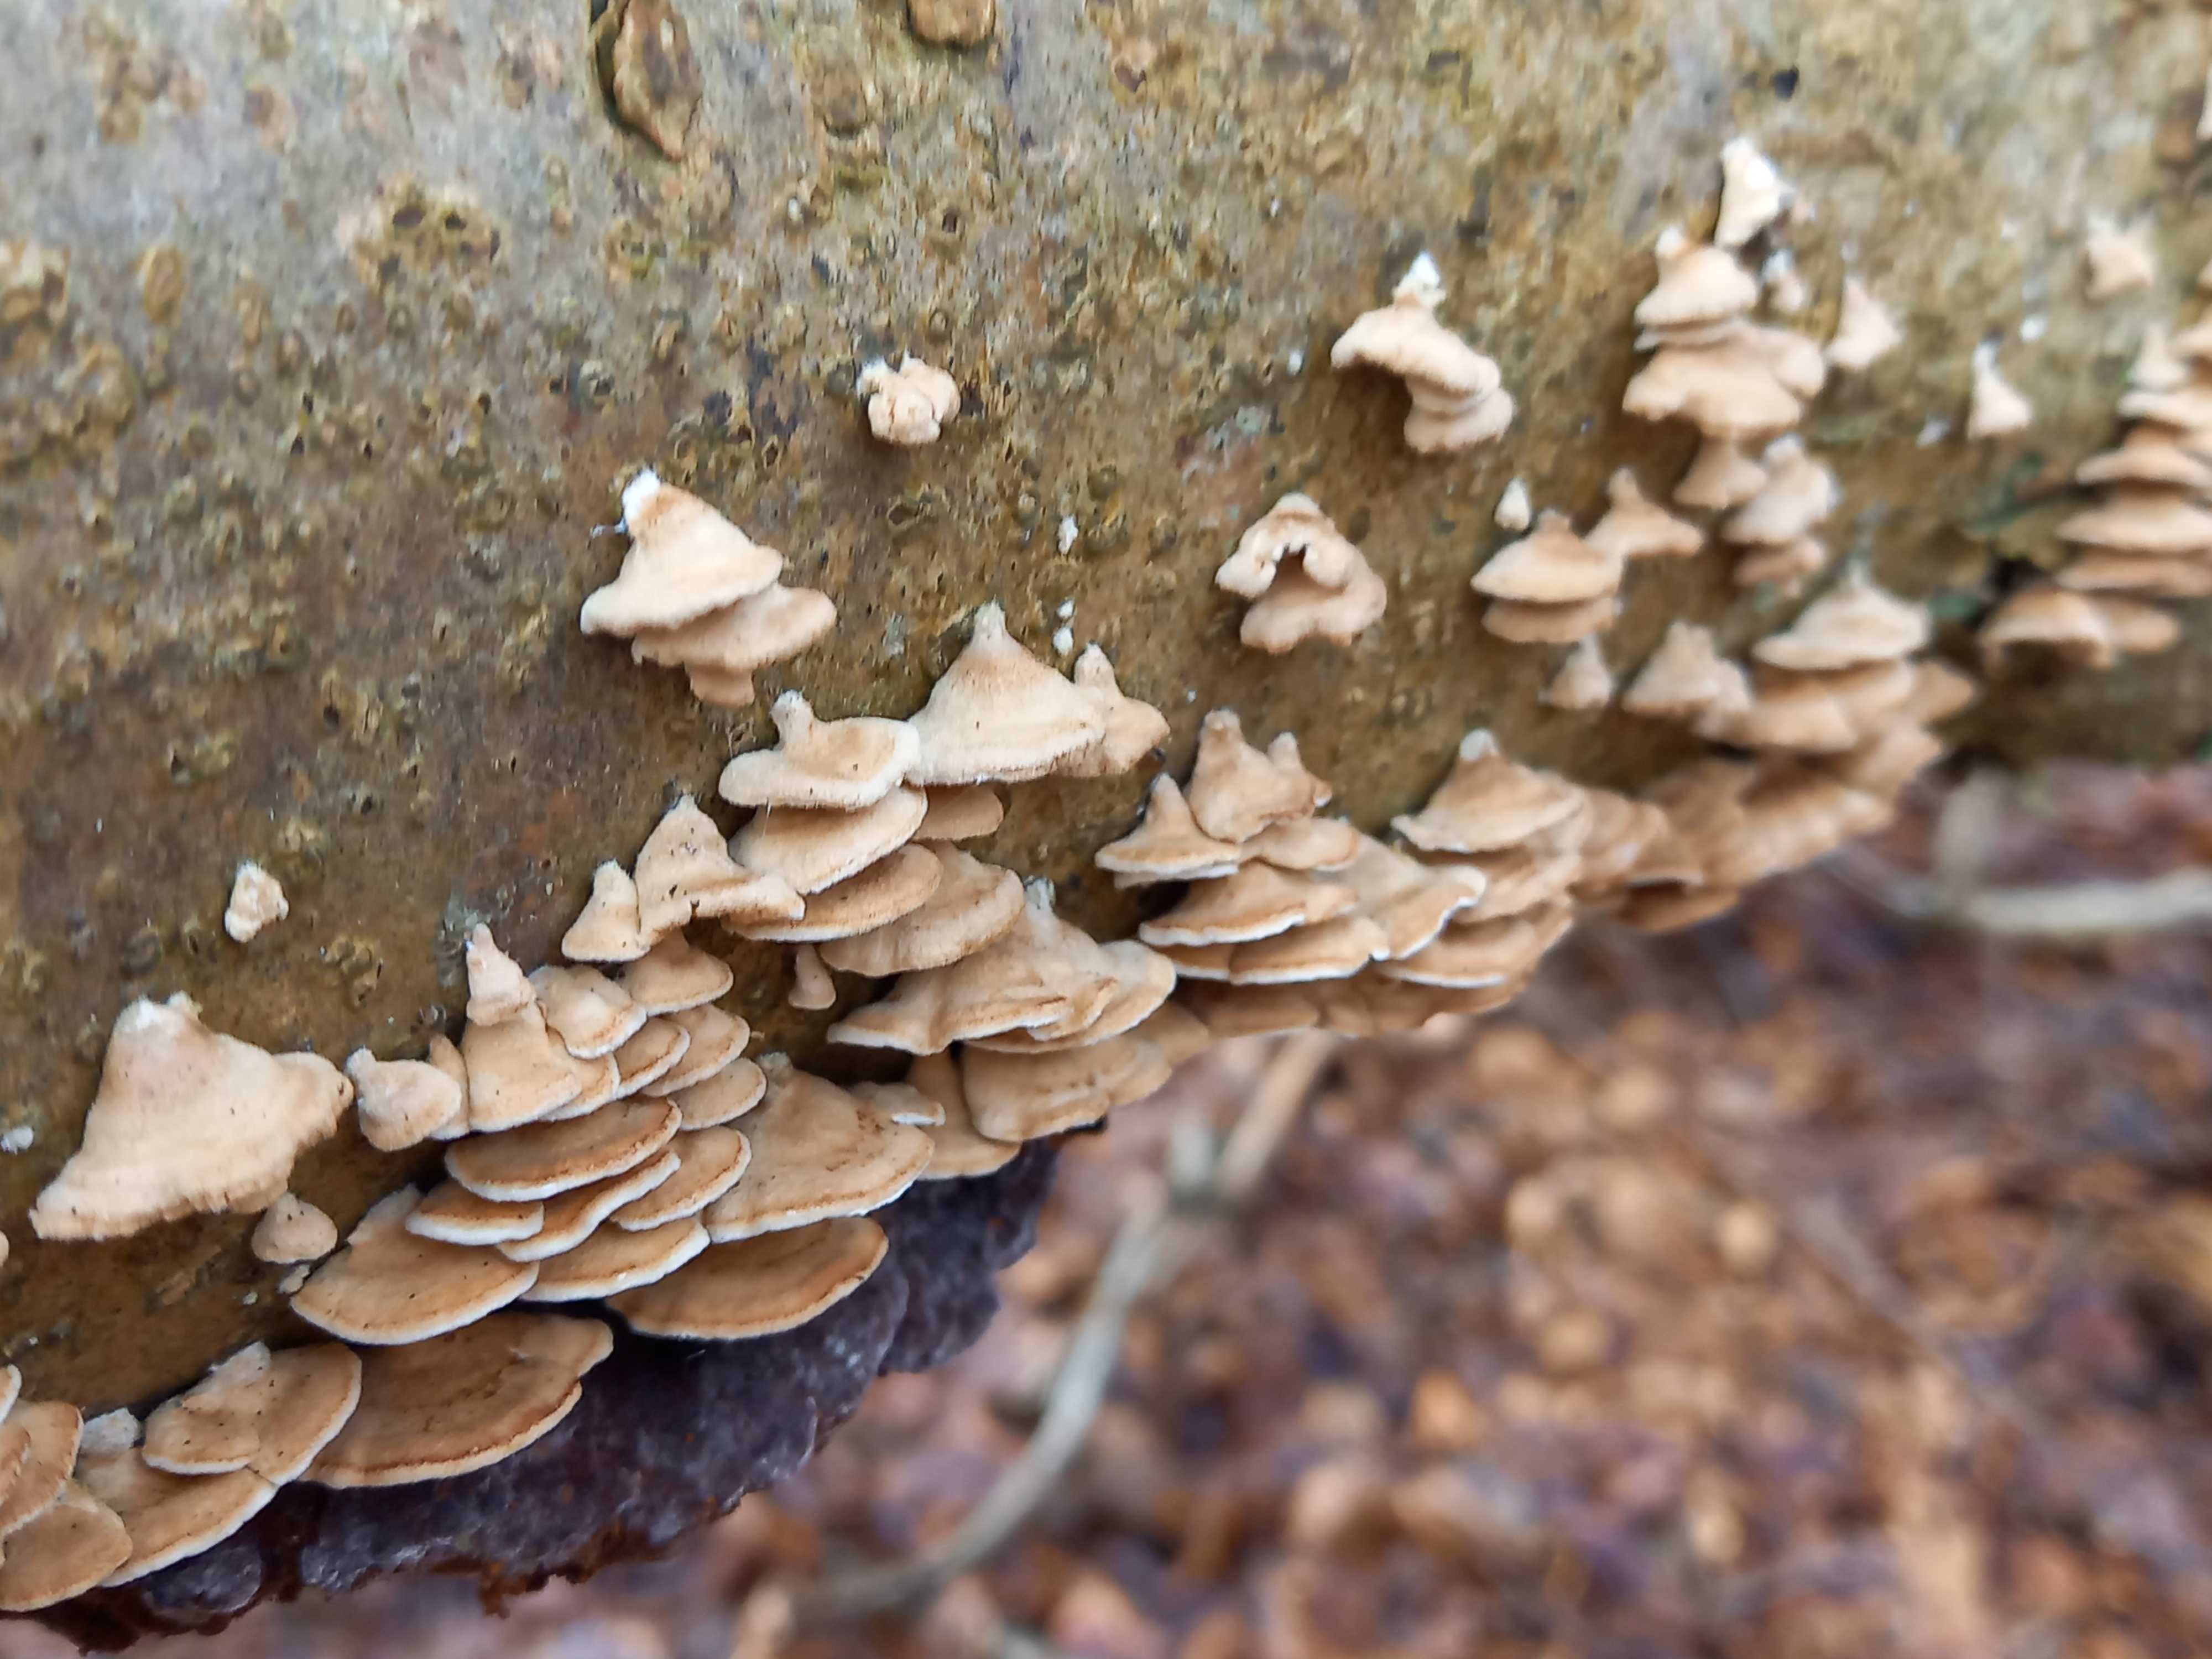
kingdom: Fungi
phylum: Basidiomycota
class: Agaricomycetes
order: Amylocorticiales
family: Amylocorticiaceae
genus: Plicaturopsis
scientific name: Plicaturopsis crispa
